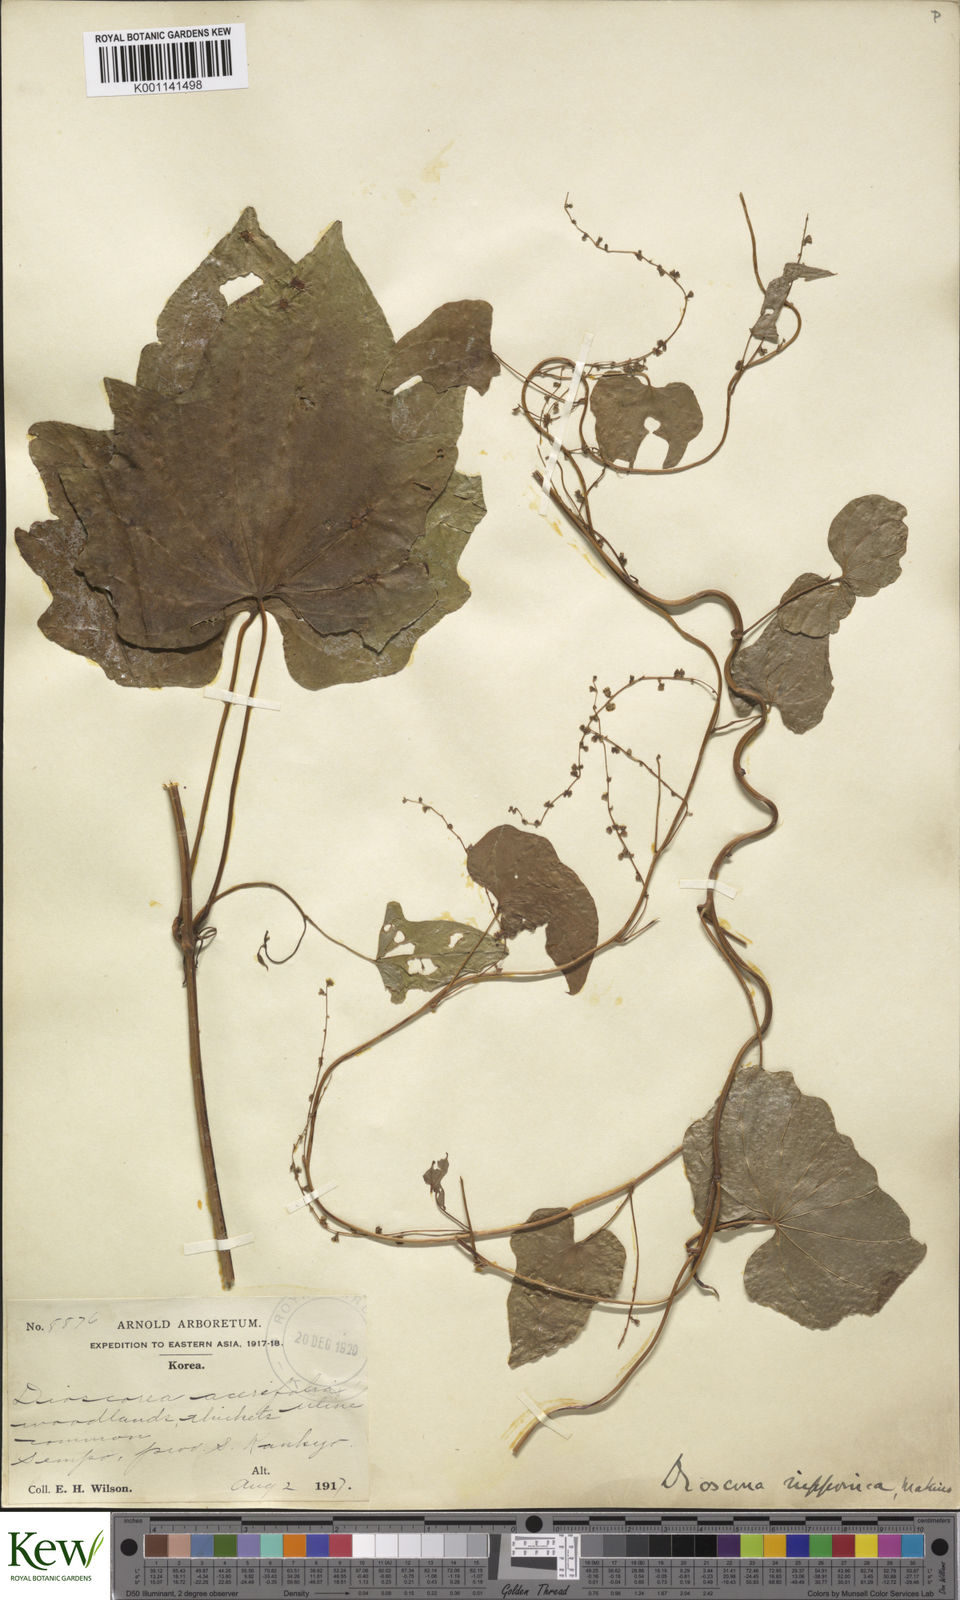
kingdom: Plantae
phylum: Tracheophyta
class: Liliopsida
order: Dioscoreales
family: Dioscoreaceae
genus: Dioscorea
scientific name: Dioscorea nipponica
